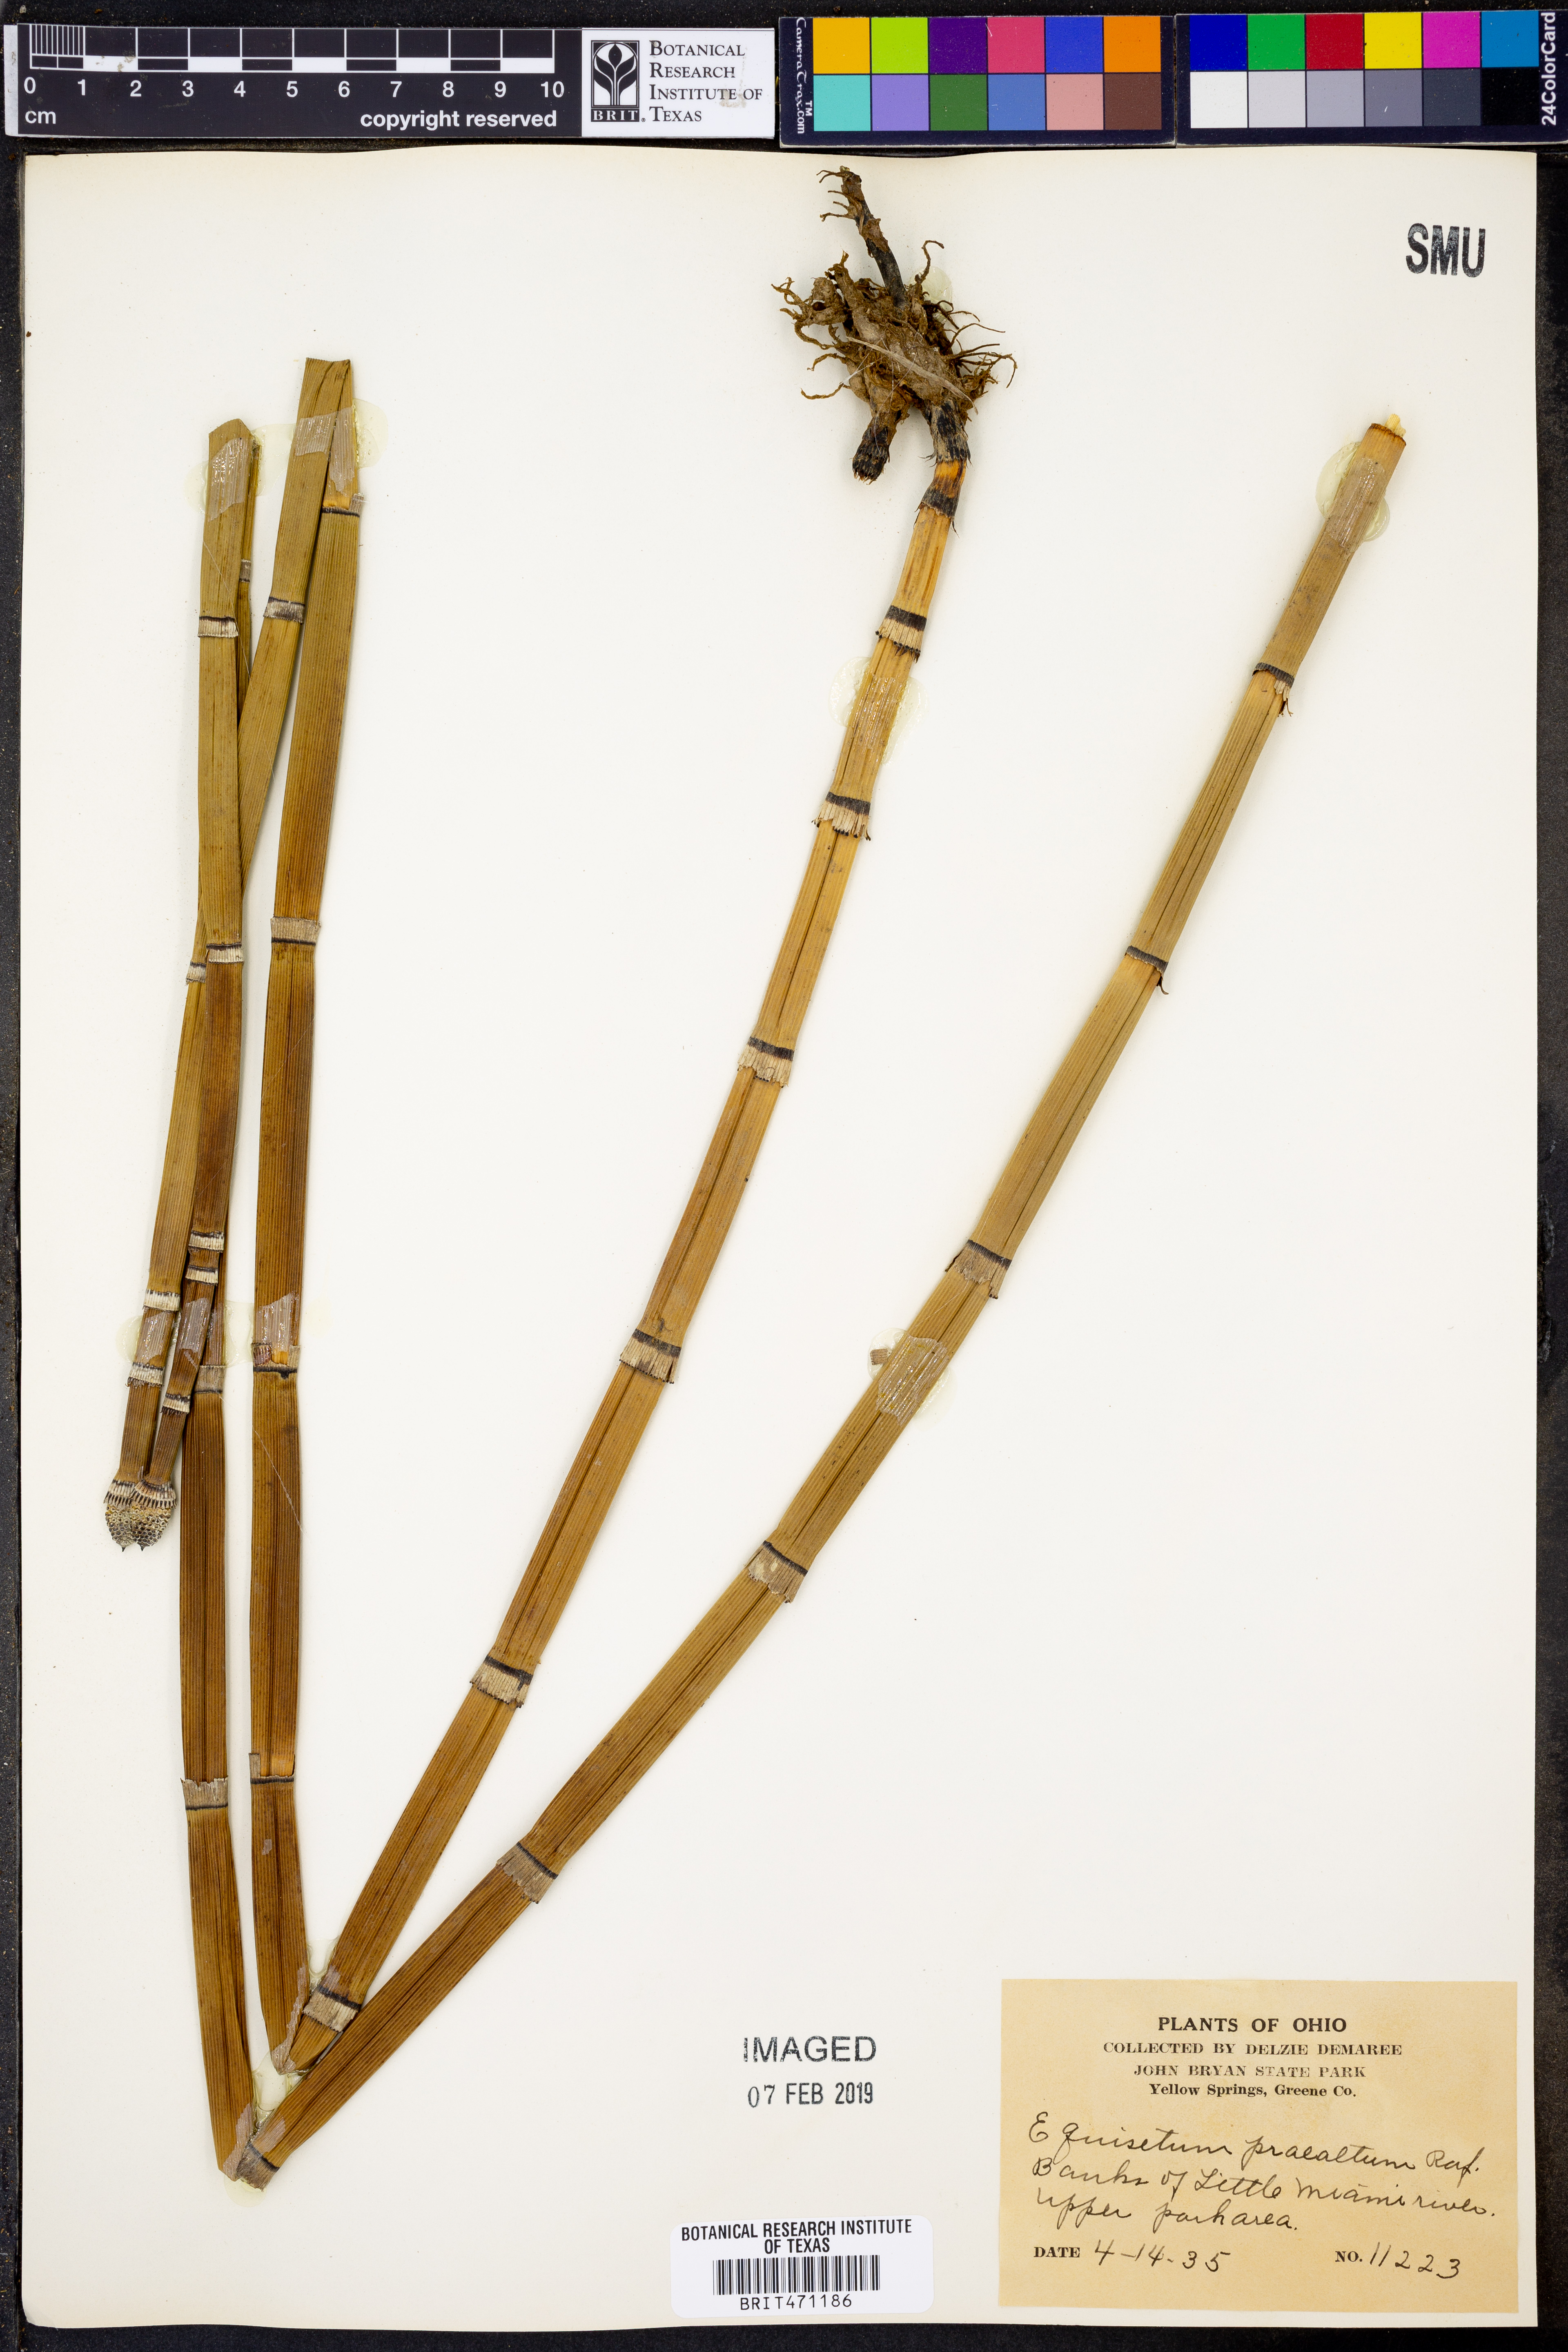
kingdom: Plantae
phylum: Tracheophyta
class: Polypodiopsida
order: Equisetales
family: Equisetaceae
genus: Equisetum
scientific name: Equisetum praealtum
